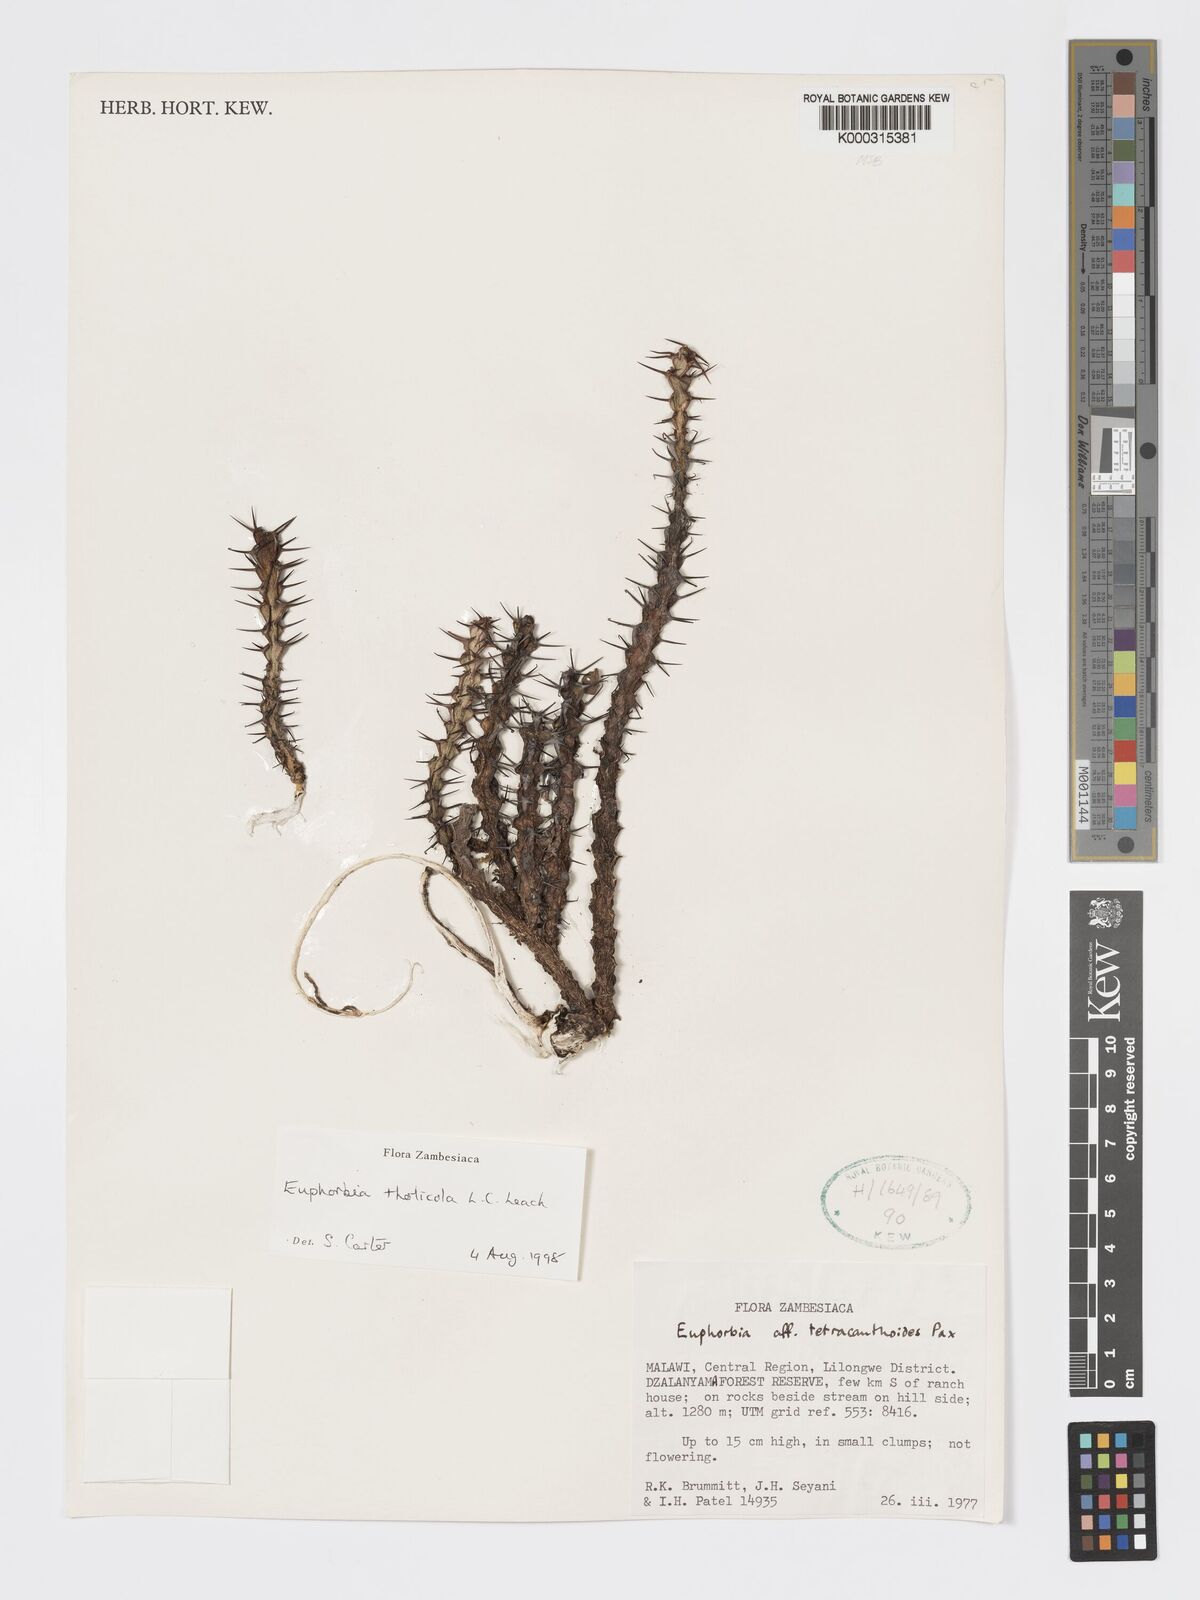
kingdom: Plantae
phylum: Tracheophyta
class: Magnoliopsida
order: Malpighiales
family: Euphorbiaceae
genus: Euphorbia
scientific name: Euphorbia tholicola
